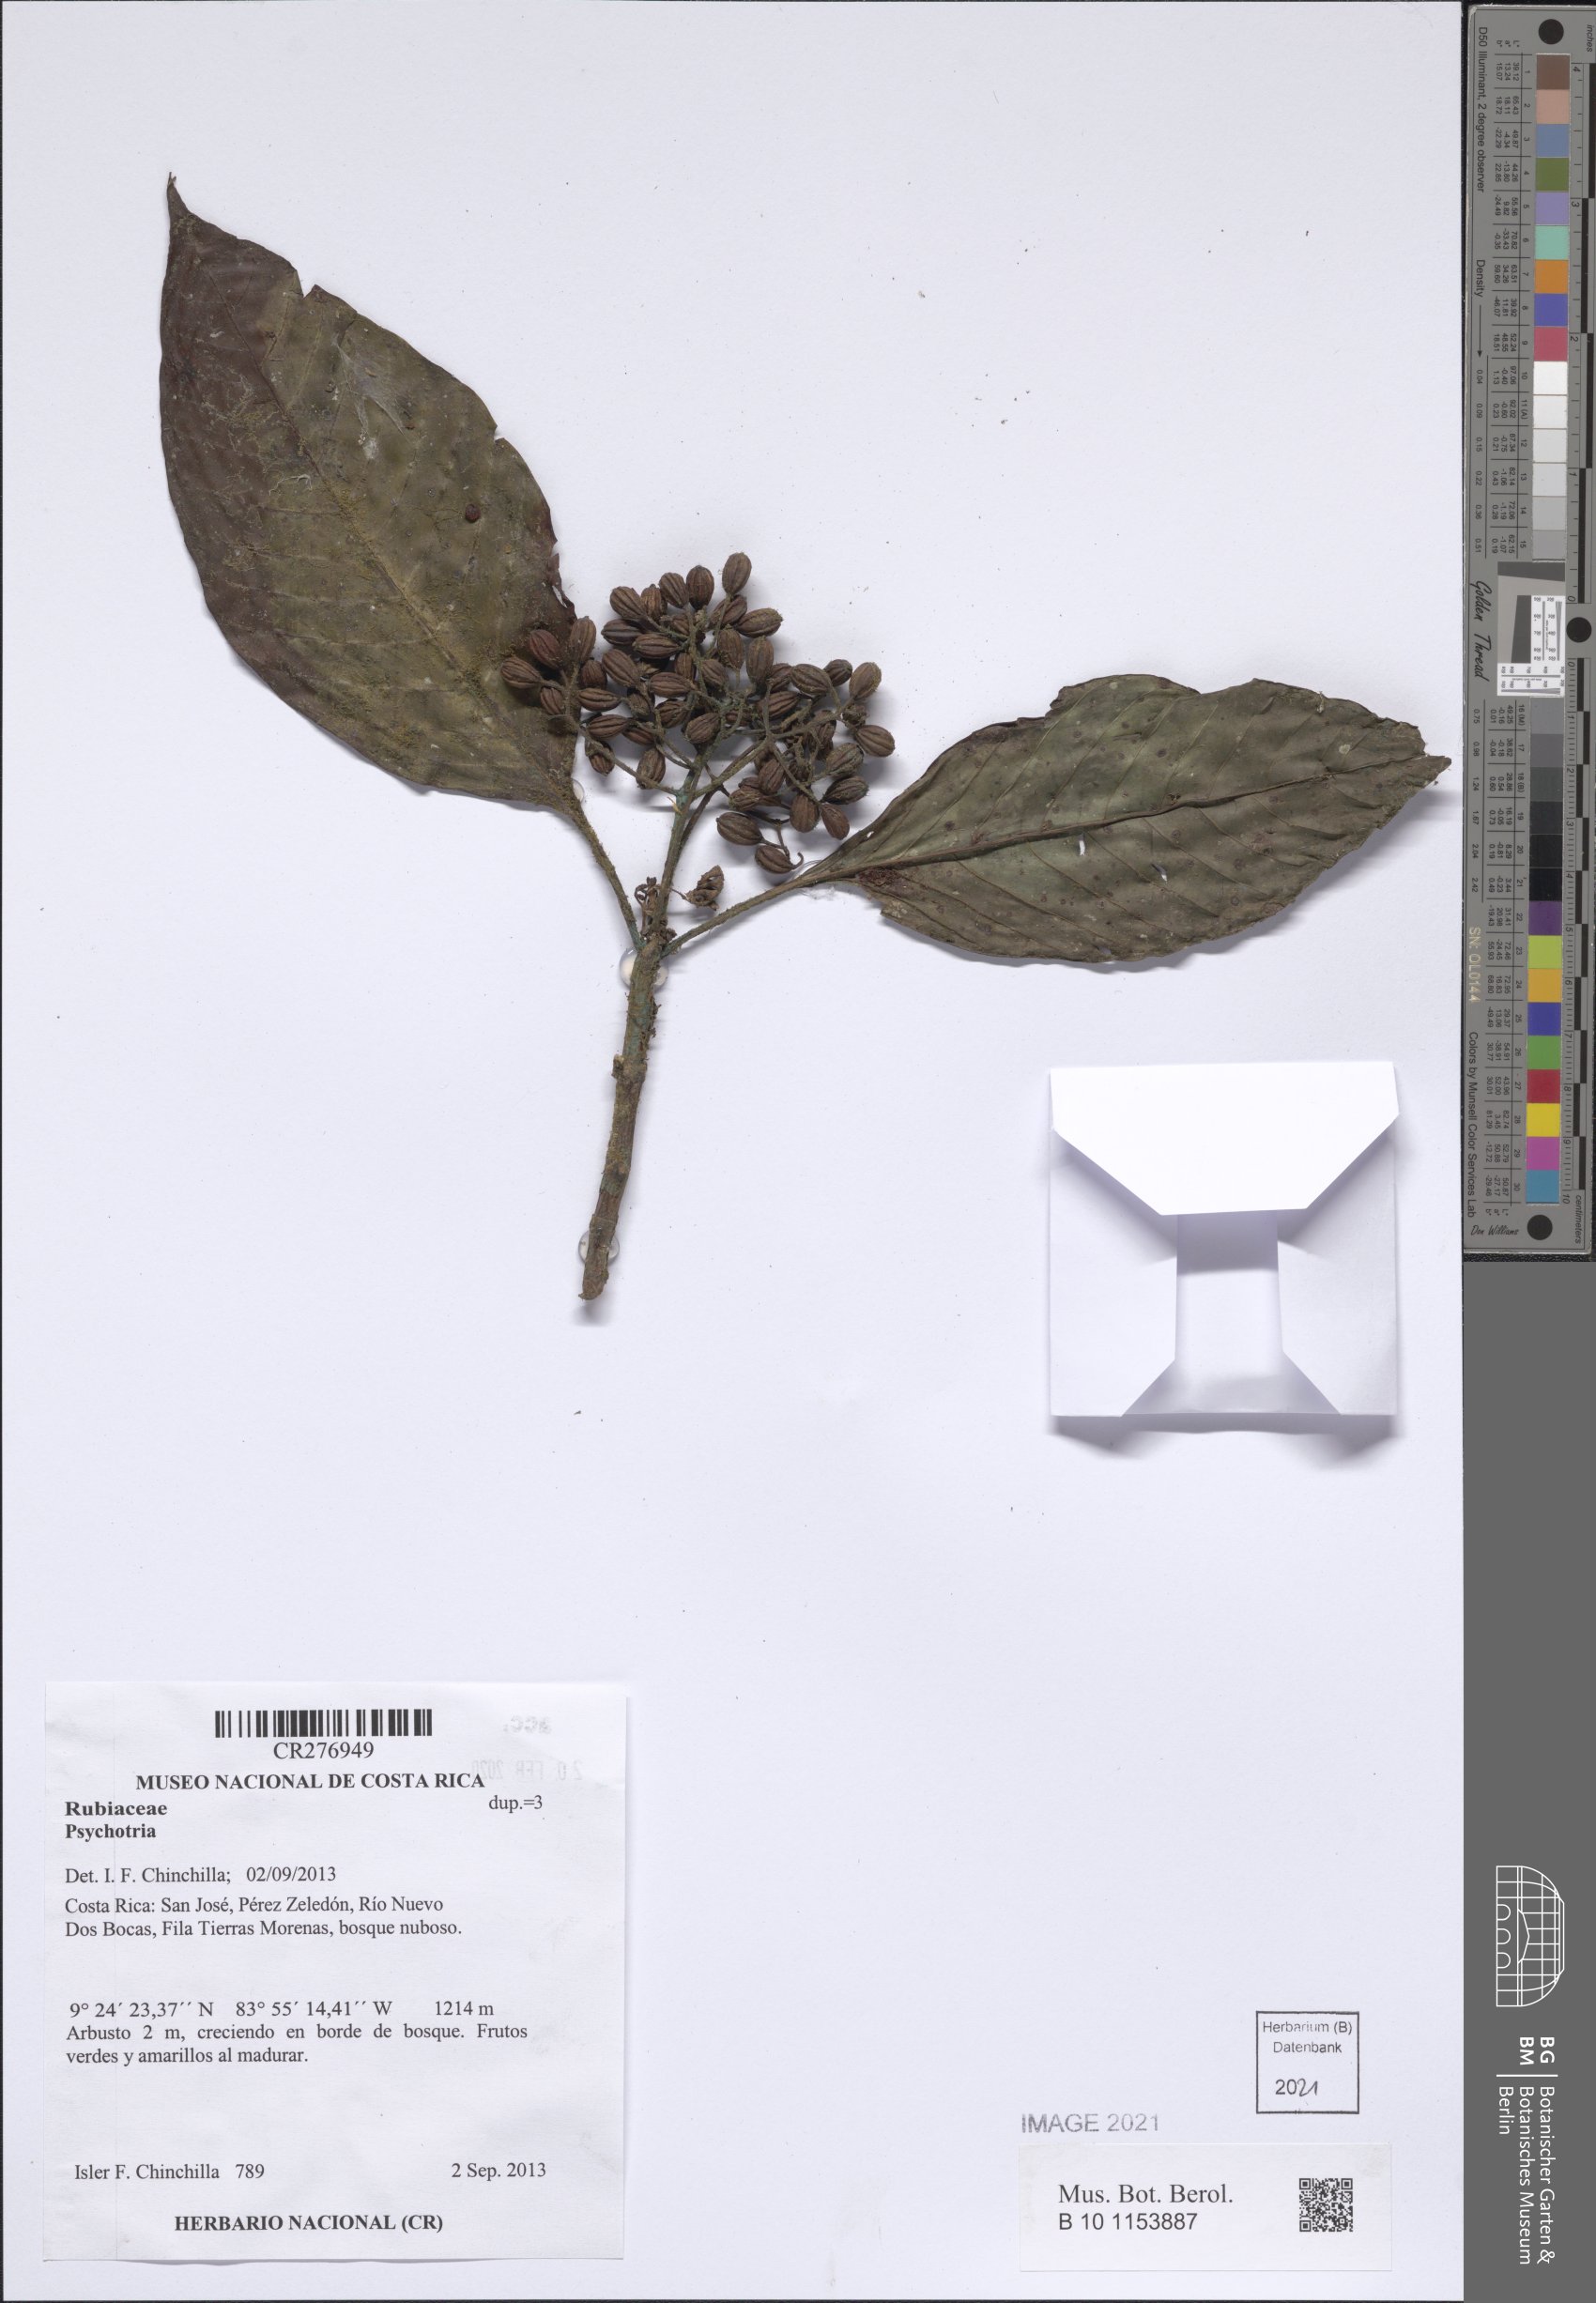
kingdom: Plantae
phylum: Tracheophyta
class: Magnoliopsida
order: Gentianales
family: Rubiaceae
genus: Psychotria
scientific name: Psychotria
